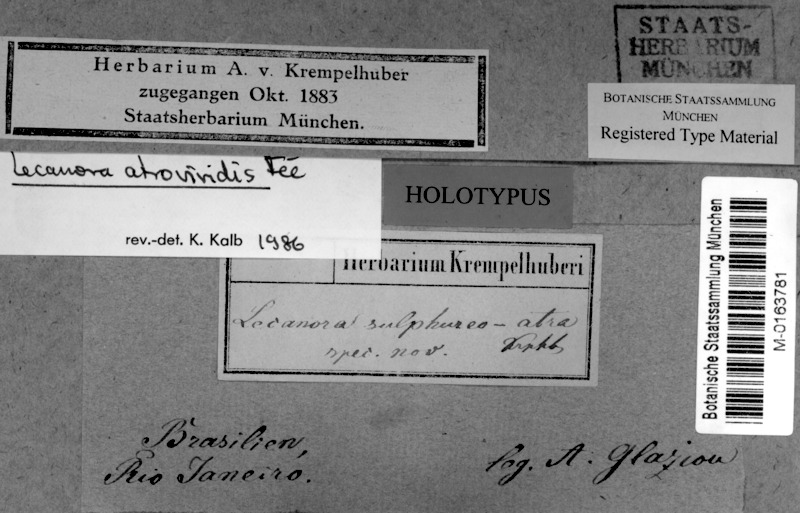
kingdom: Fungi
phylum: Ascomycota
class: Lecanoromycetes
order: Lecanorales
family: Lecanoraceae
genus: Lecanora
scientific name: Lecanora
